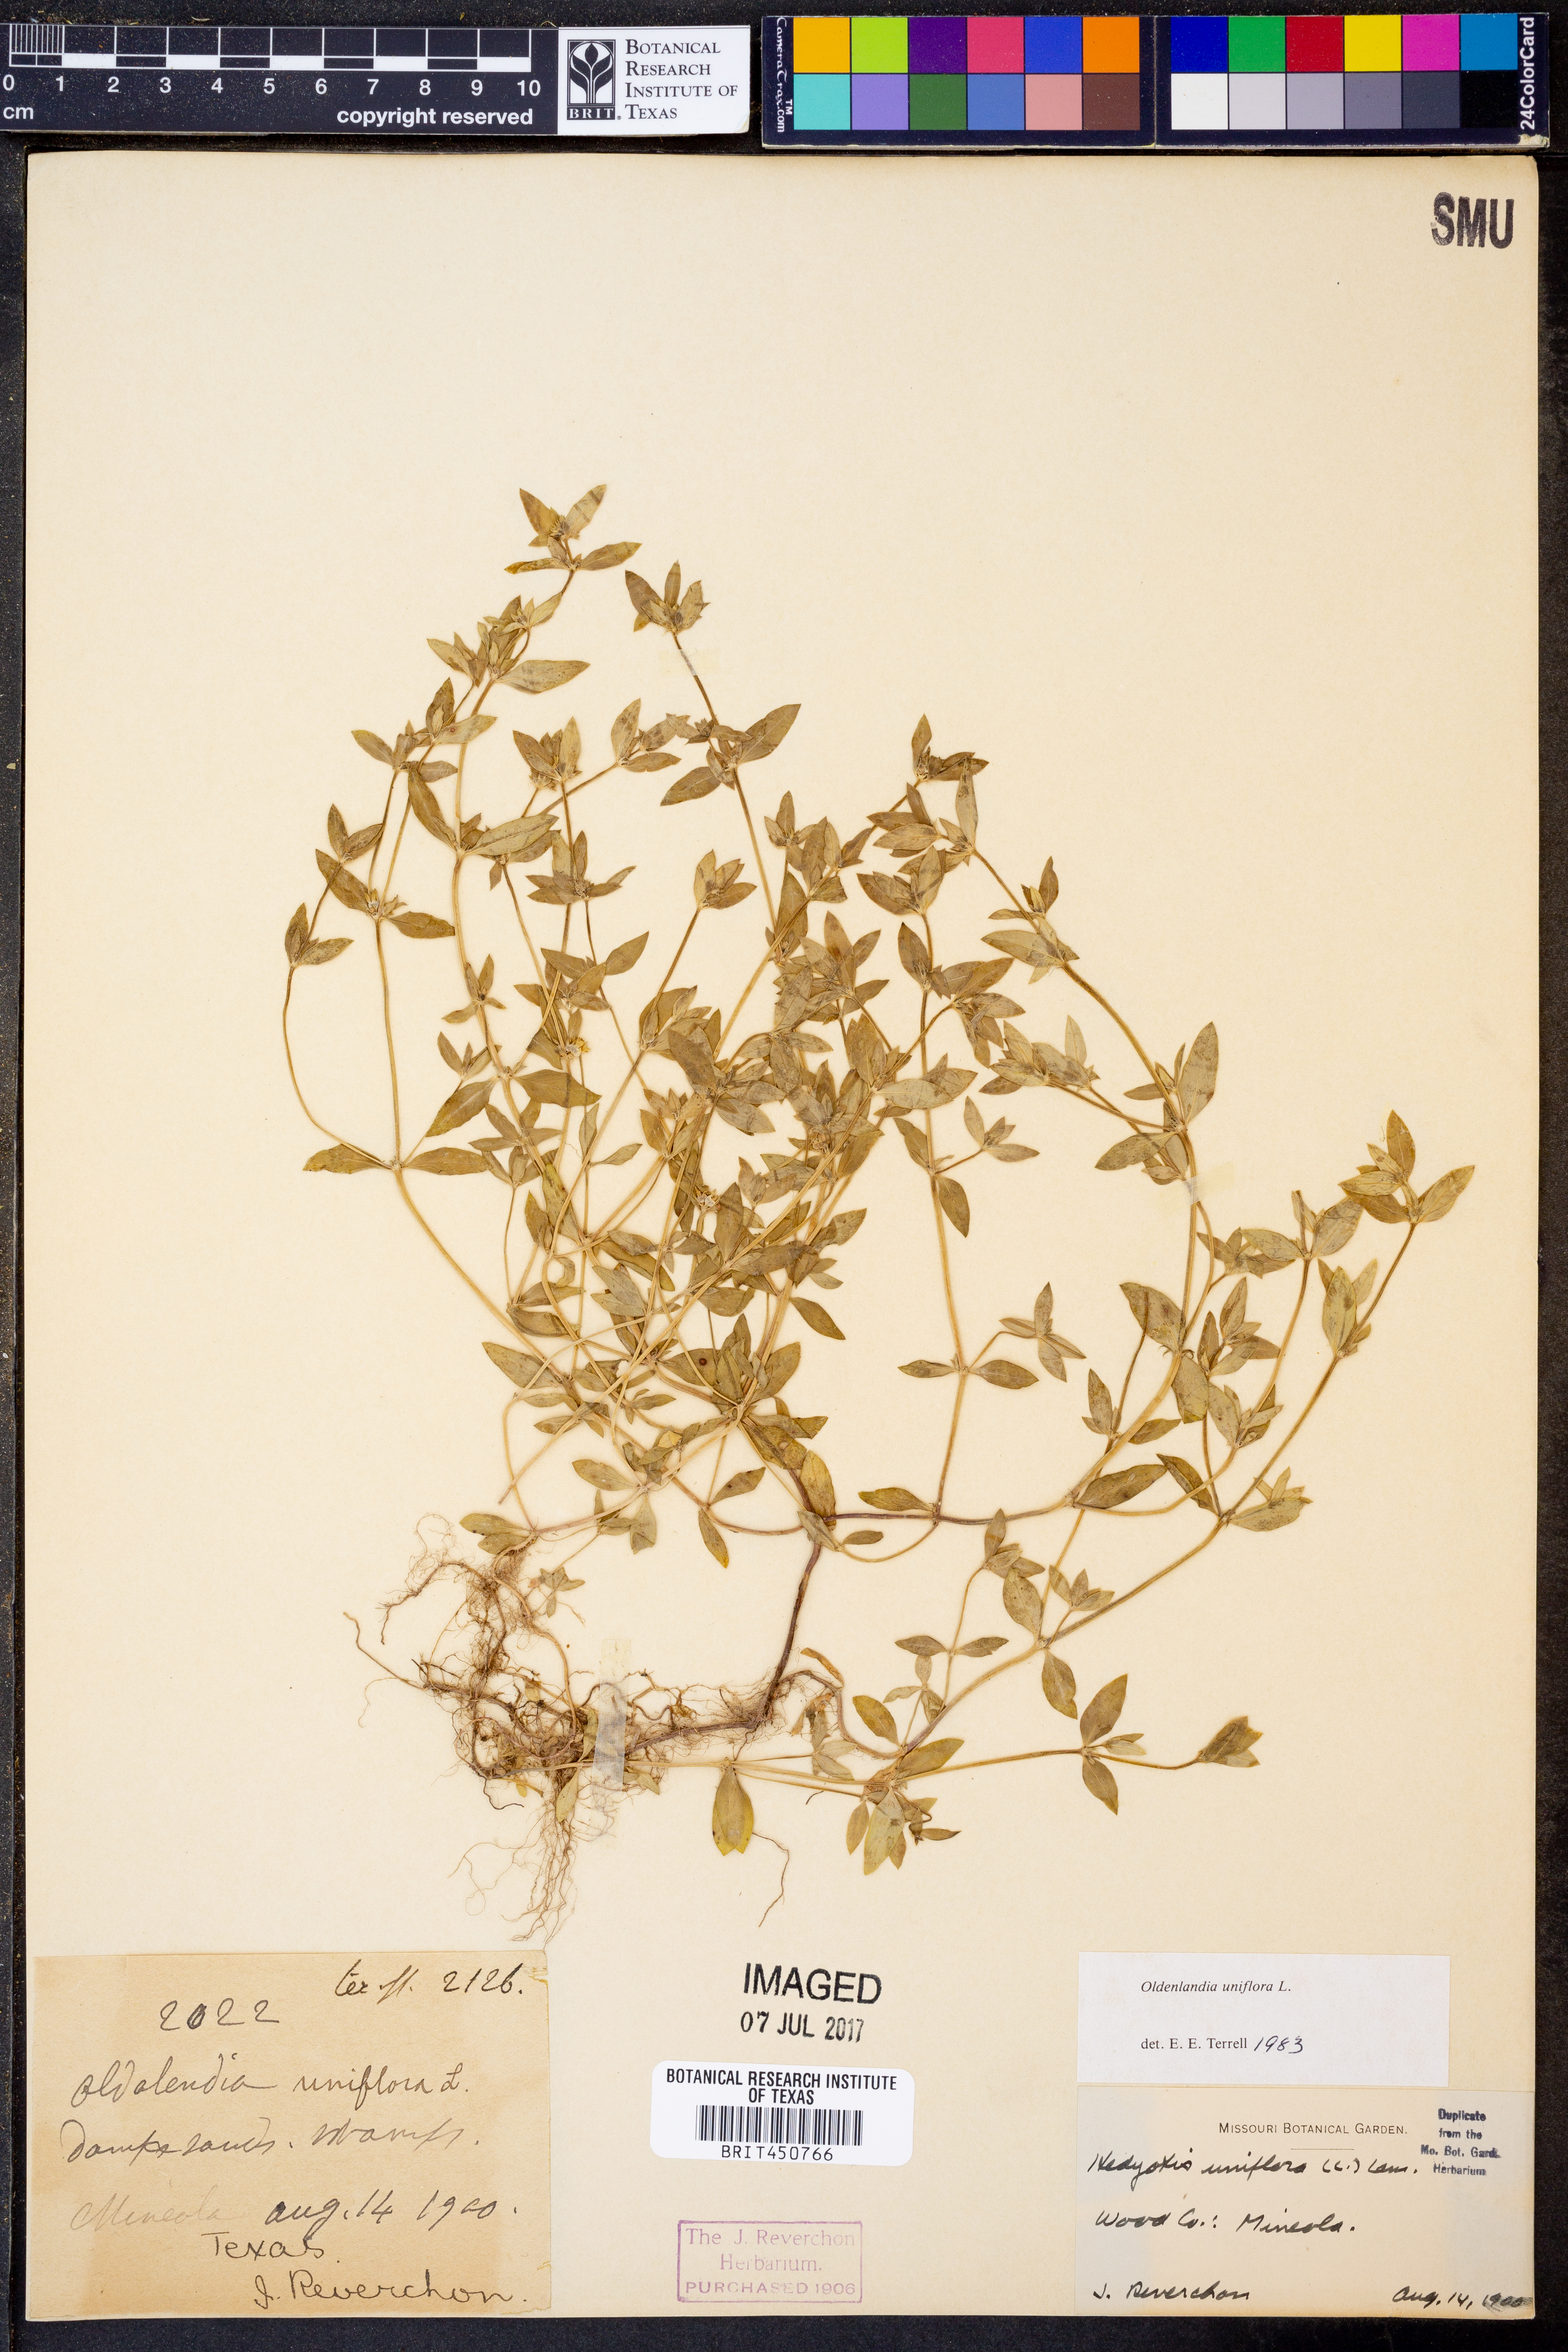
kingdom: Plantae
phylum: Tracheophyta
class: Magnoliopsida
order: Gentianales
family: Rubiaceae
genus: Edrastima
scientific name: Edrastima uniflora
